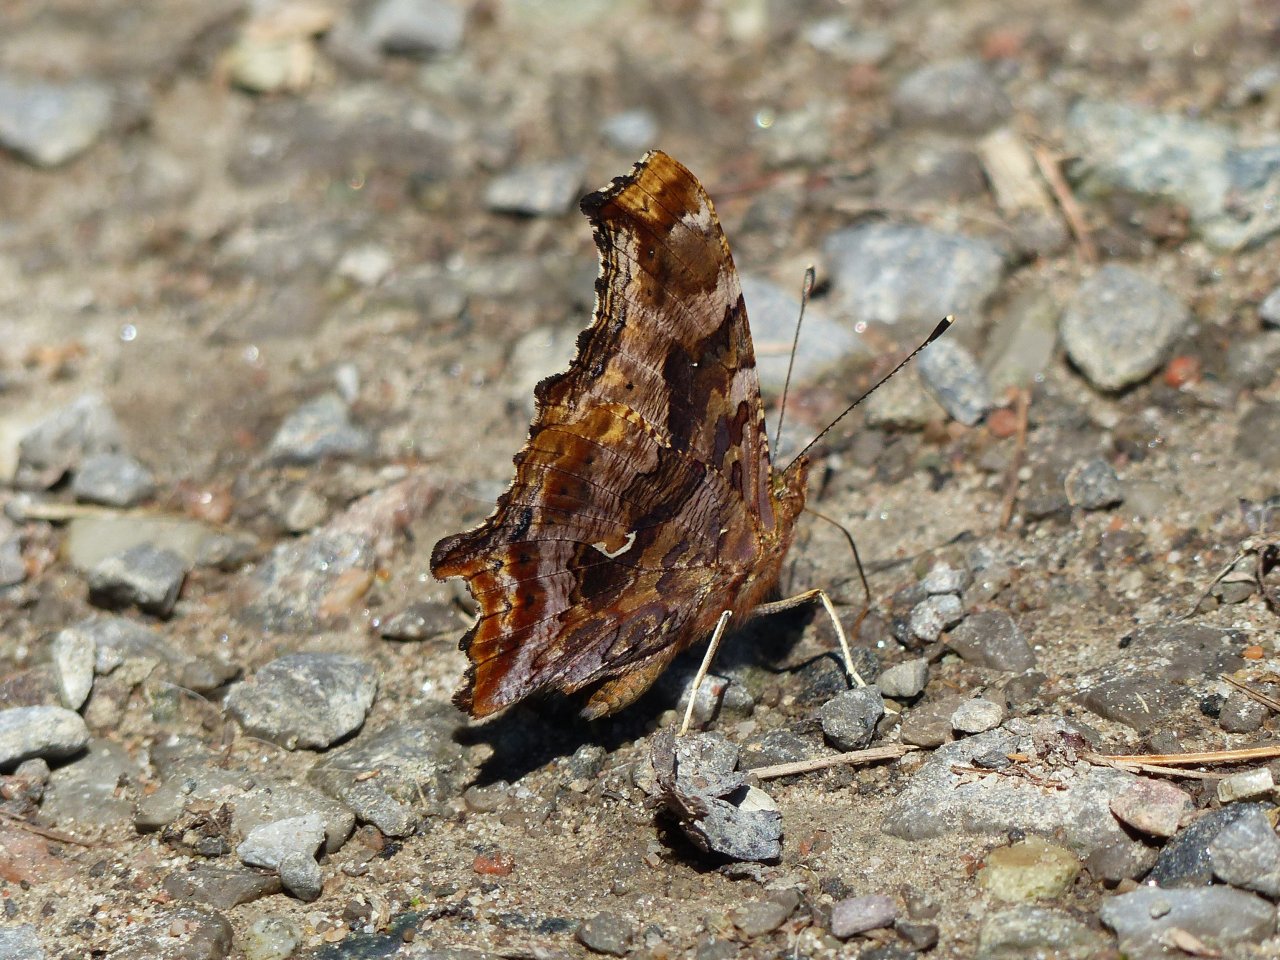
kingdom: Animalia
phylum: Arthropoda
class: Insecta
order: Lepidoptera
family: Nymphalidae
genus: Polygonia
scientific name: Polygonia comma
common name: Eastern Comma
